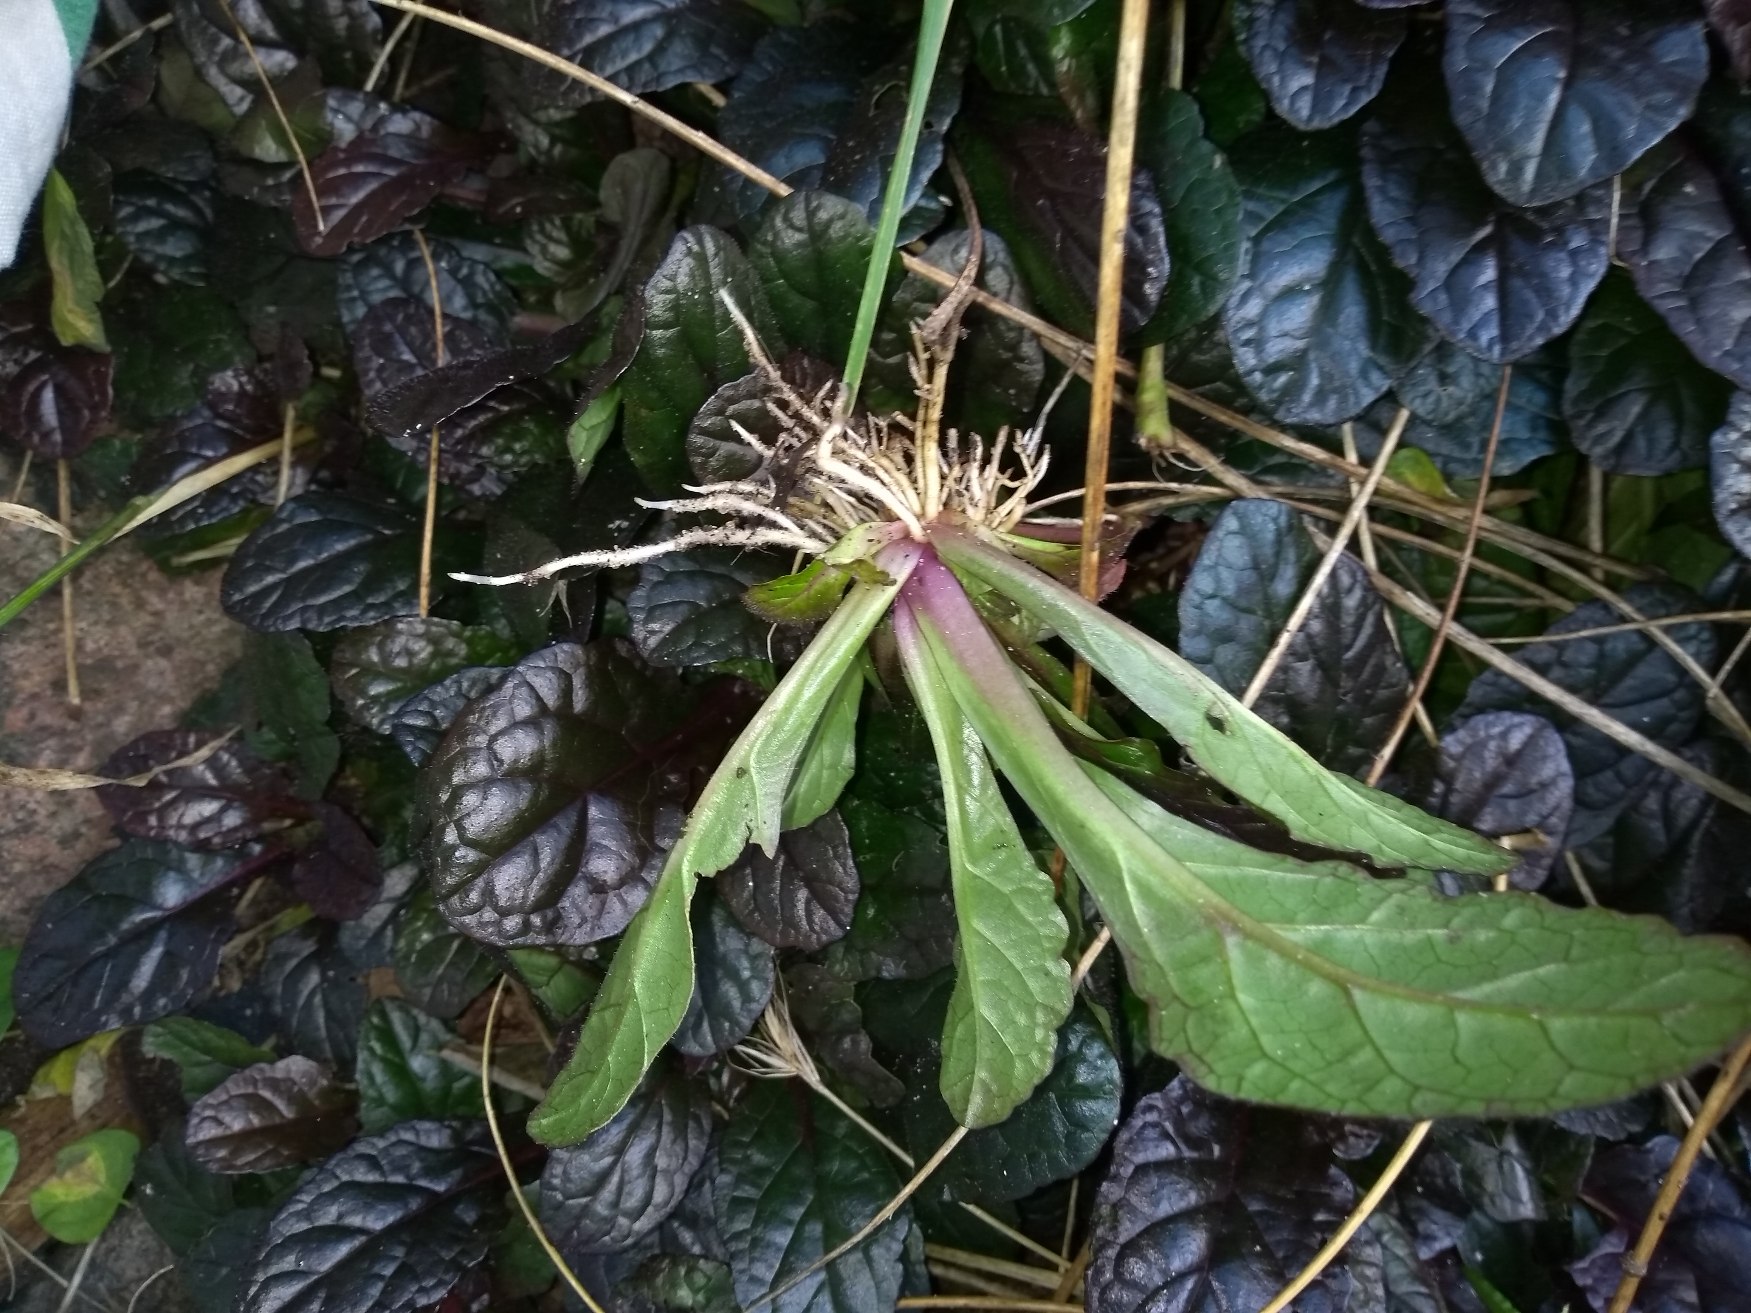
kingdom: Plantae
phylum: Tracheophyta
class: Magnoliopsida
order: Lamiales
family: Lamiaceae
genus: Ajuga
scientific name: Ajuga reptans
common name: Krybende læbeløs
